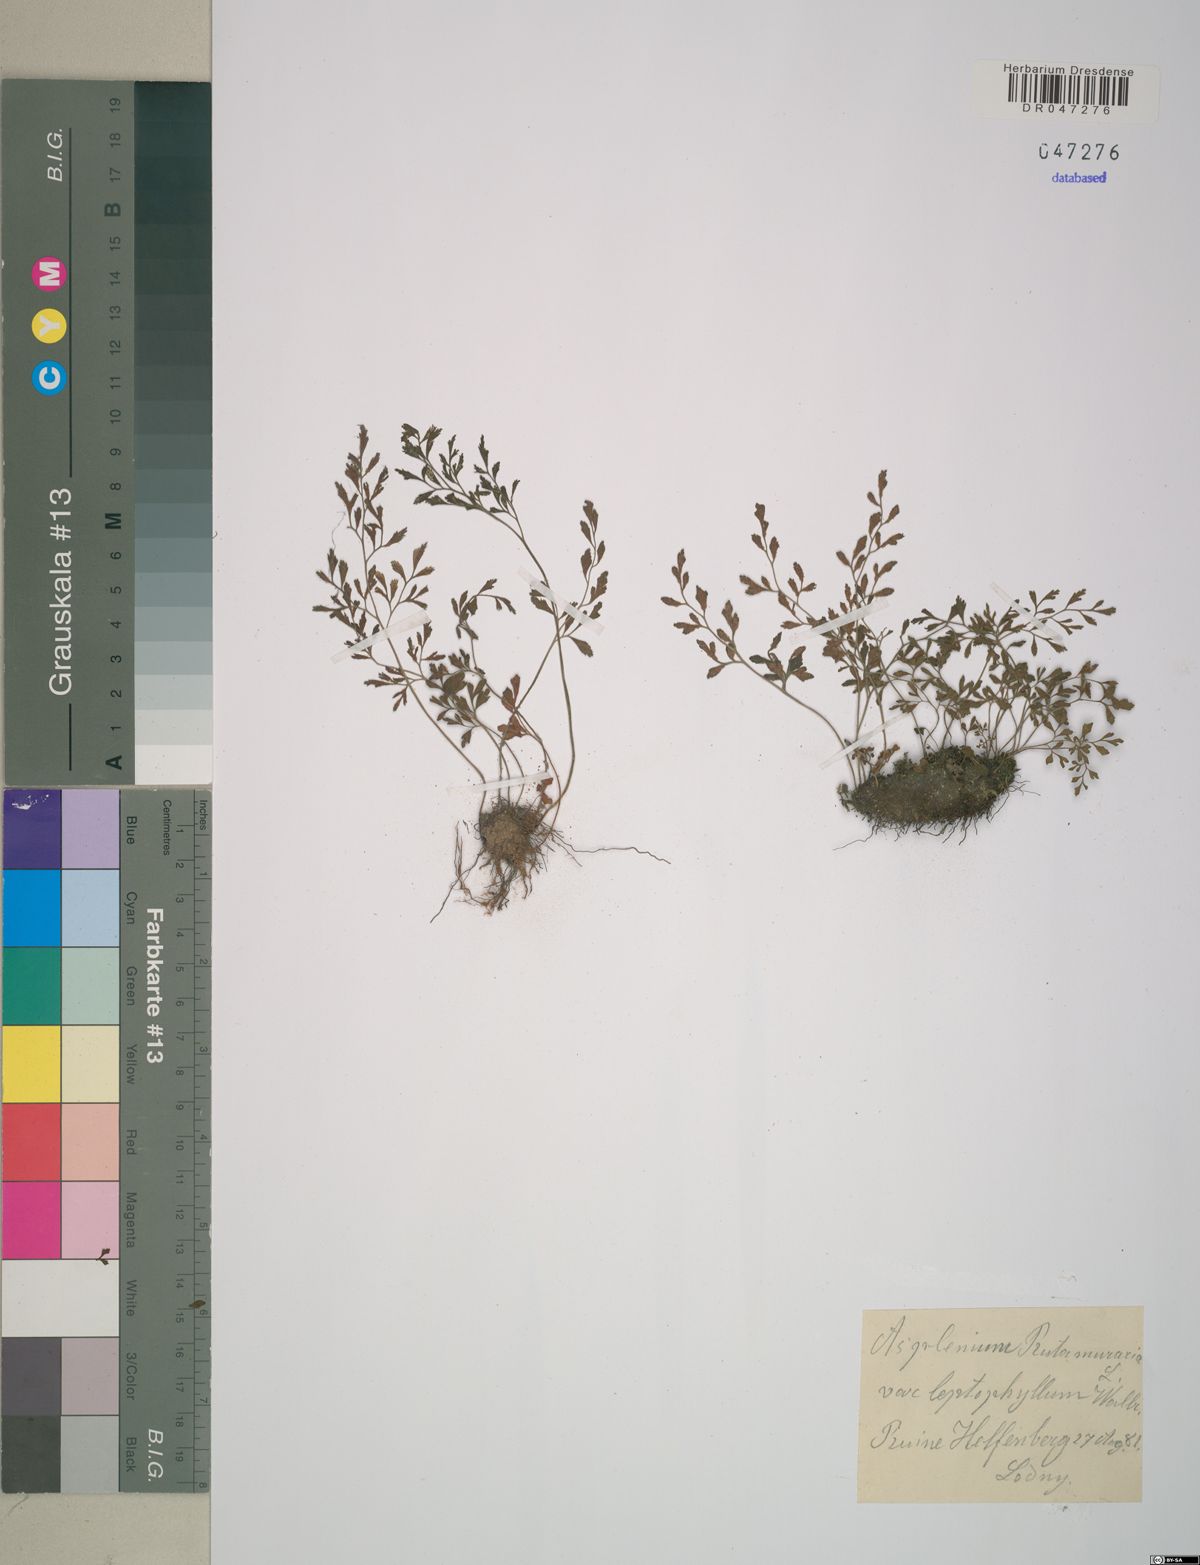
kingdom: Plantae
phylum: Tracheophyta
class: Polypodiopsida
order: Polypodiales
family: Aspleniaceae
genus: Asplenium
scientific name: Asplenium ruta-muraria
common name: Wall-rue
